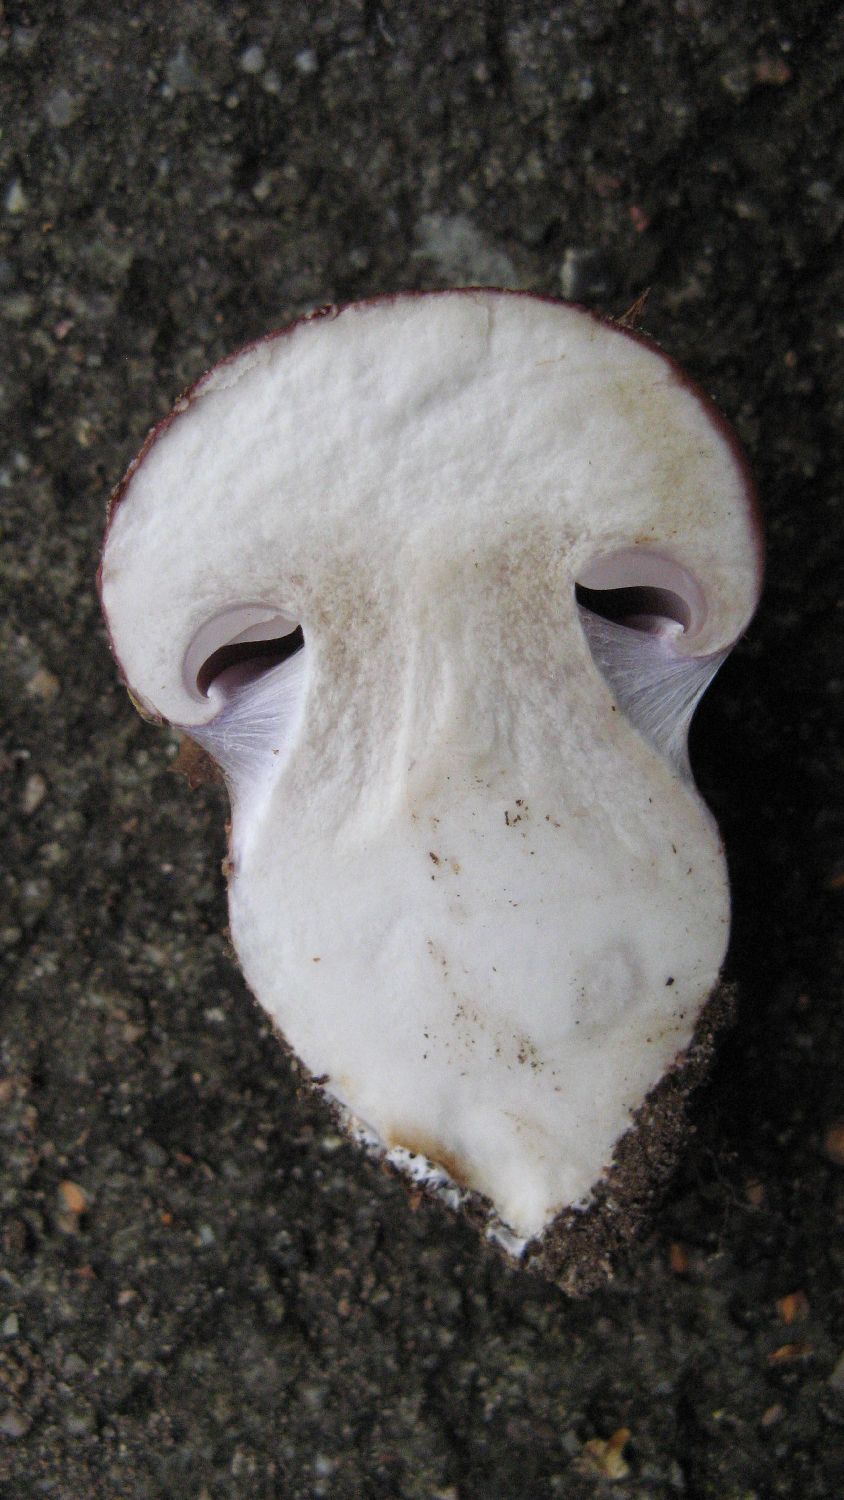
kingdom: Fungi
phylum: Basidiomycota
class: Agaricomycetes
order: Agaricales
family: Cortinariaceae
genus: Phlegmacium
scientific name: Phlegmacium balteatocumatile
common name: violettrådet slørhat
